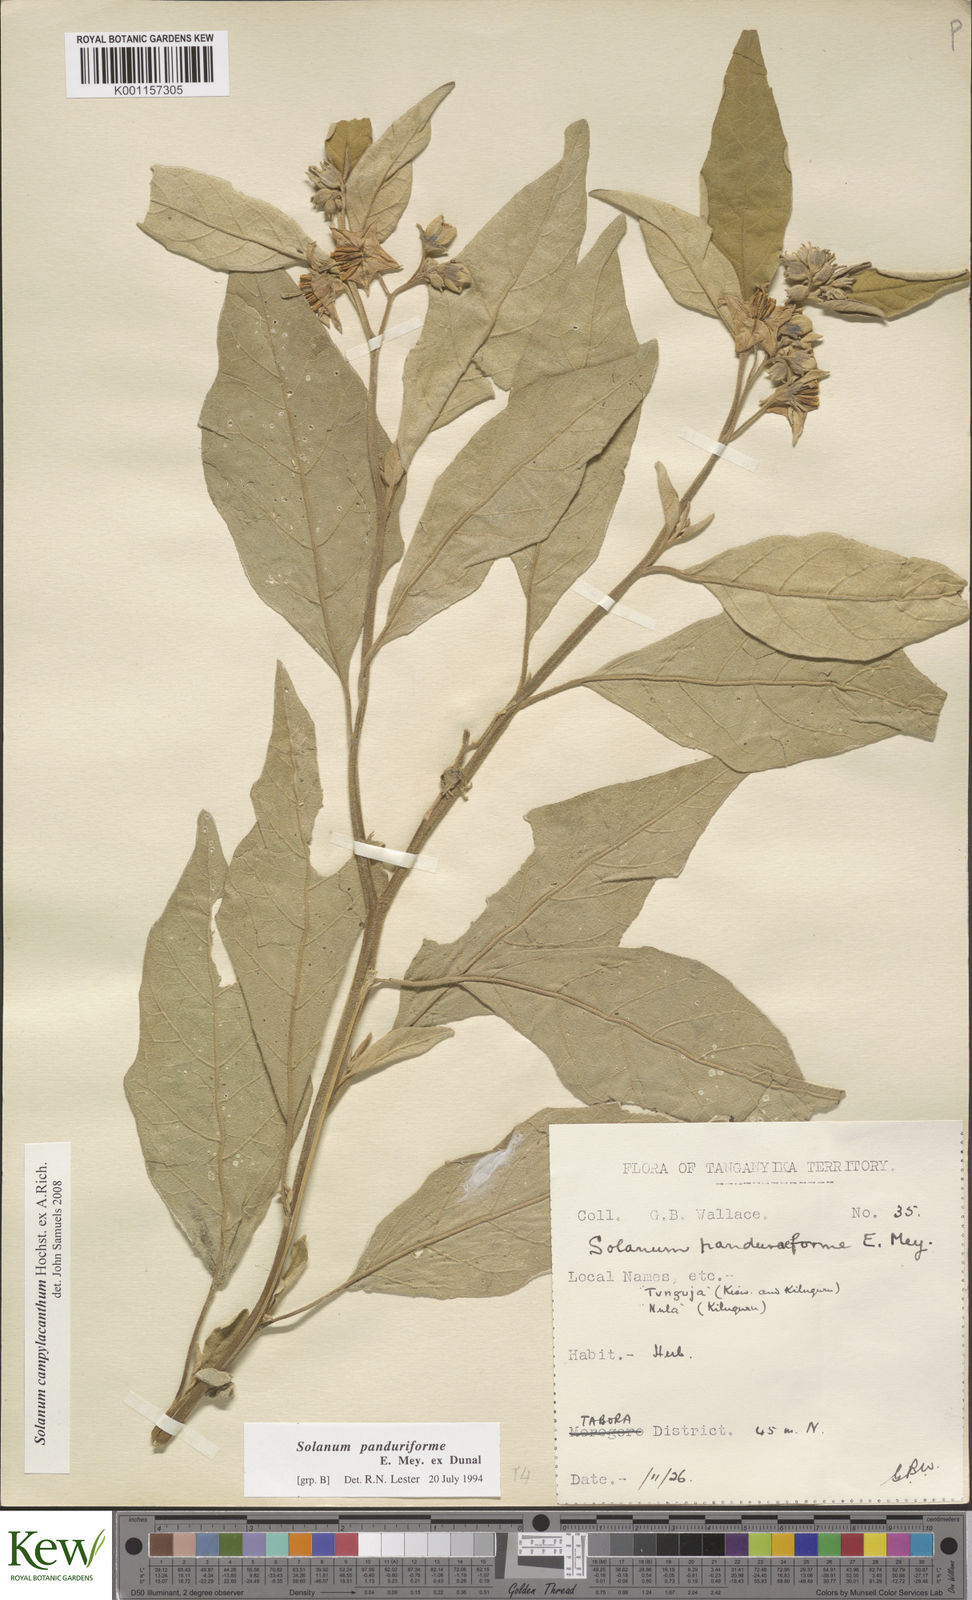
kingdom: Plantae
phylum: Tracheophyta
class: Magnoliopsida
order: Solanales
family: Solanaceae
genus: Solanum
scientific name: Solanum campylacanthum
